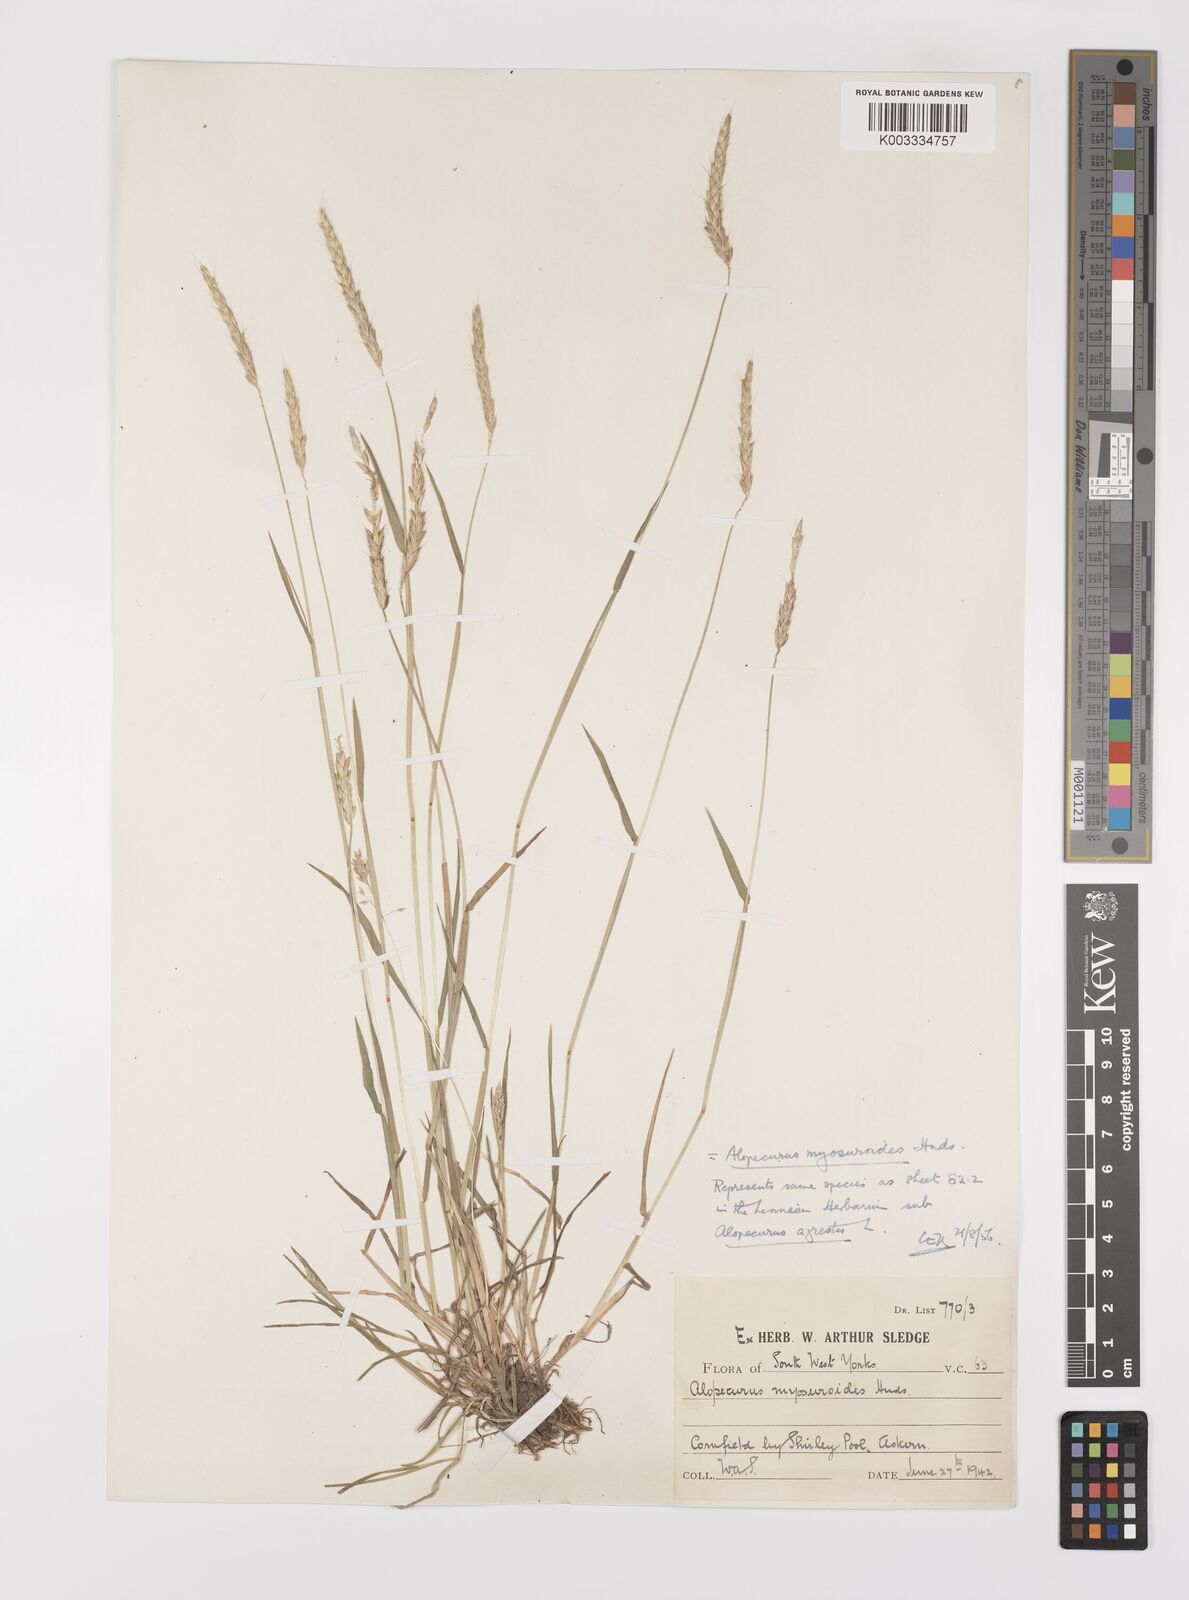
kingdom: Plantae
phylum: Tracheophyta
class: Liliopsida
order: Poales
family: Poaceae
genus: Alopecurus
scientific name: Alopecurus myosuroides
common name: Black-grass
